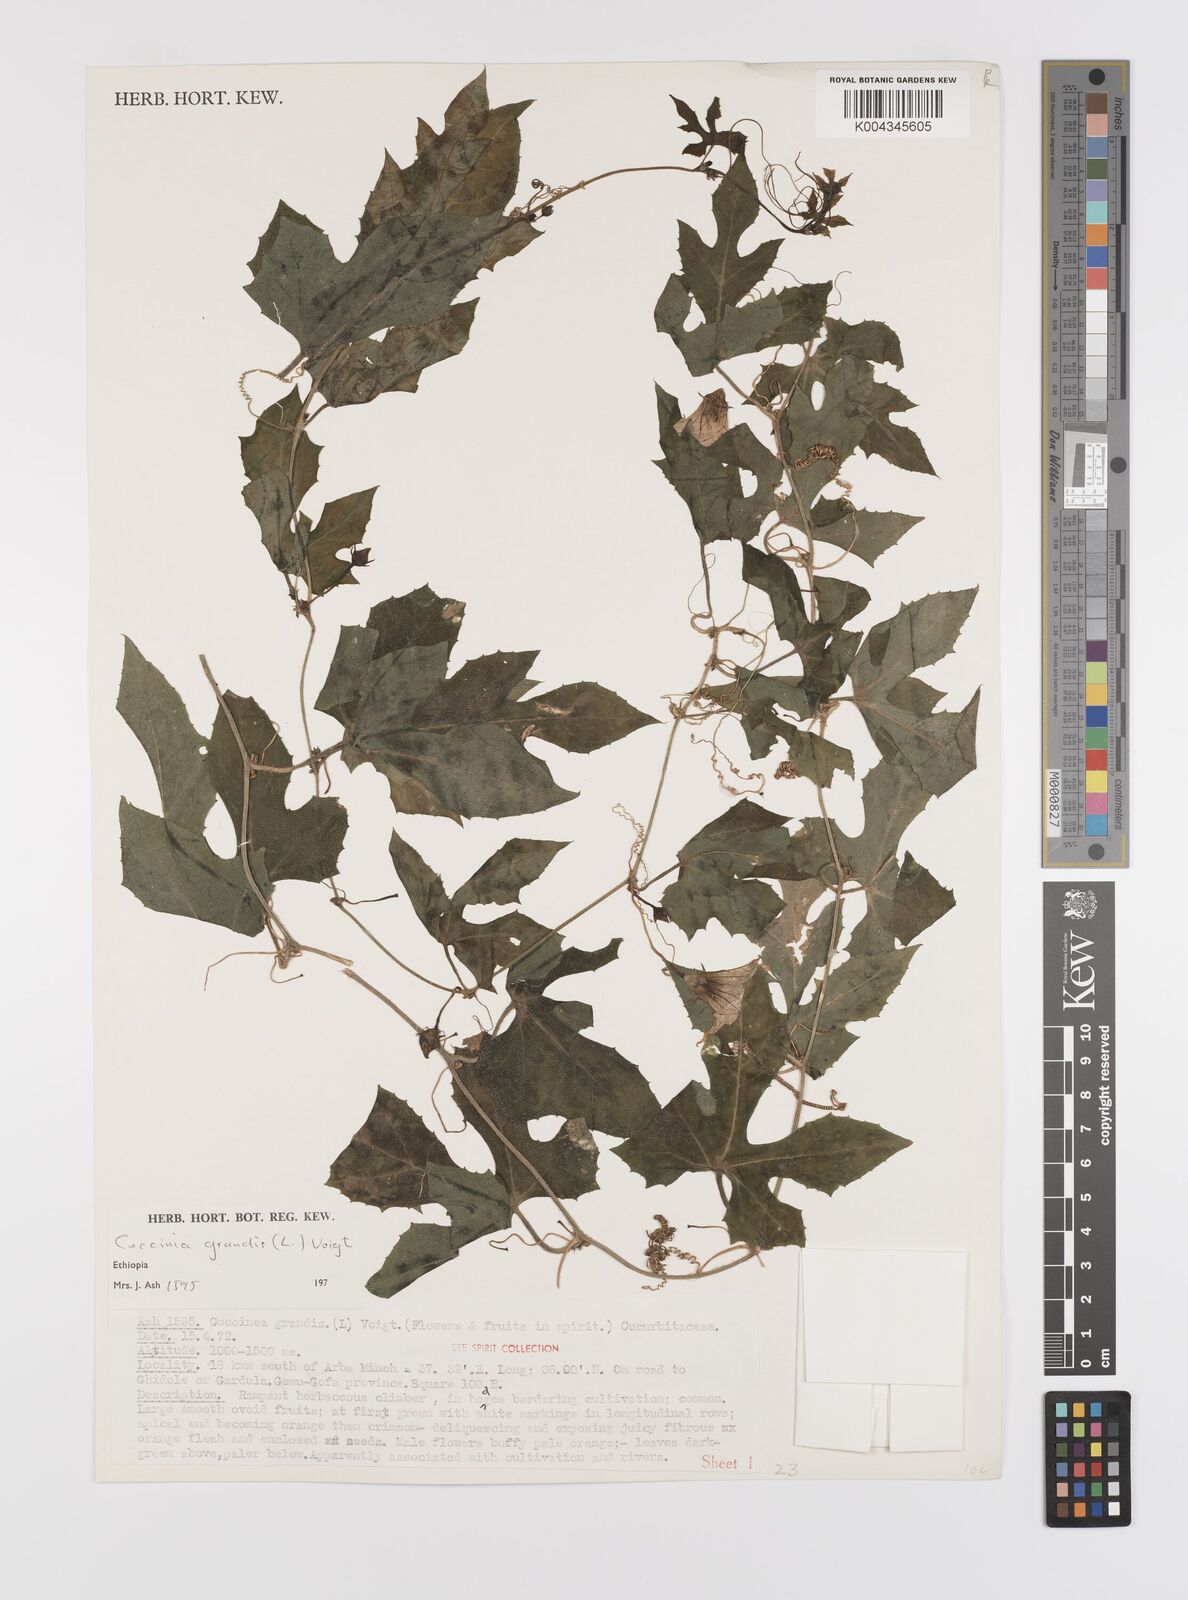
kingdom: Plantae
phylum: Tracheophyta
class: Magnoliopsida
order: Cucurbitales
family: Cucurbitaceae
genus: Coccinia
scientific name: Coccinia grandis
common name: Ivy gourd
